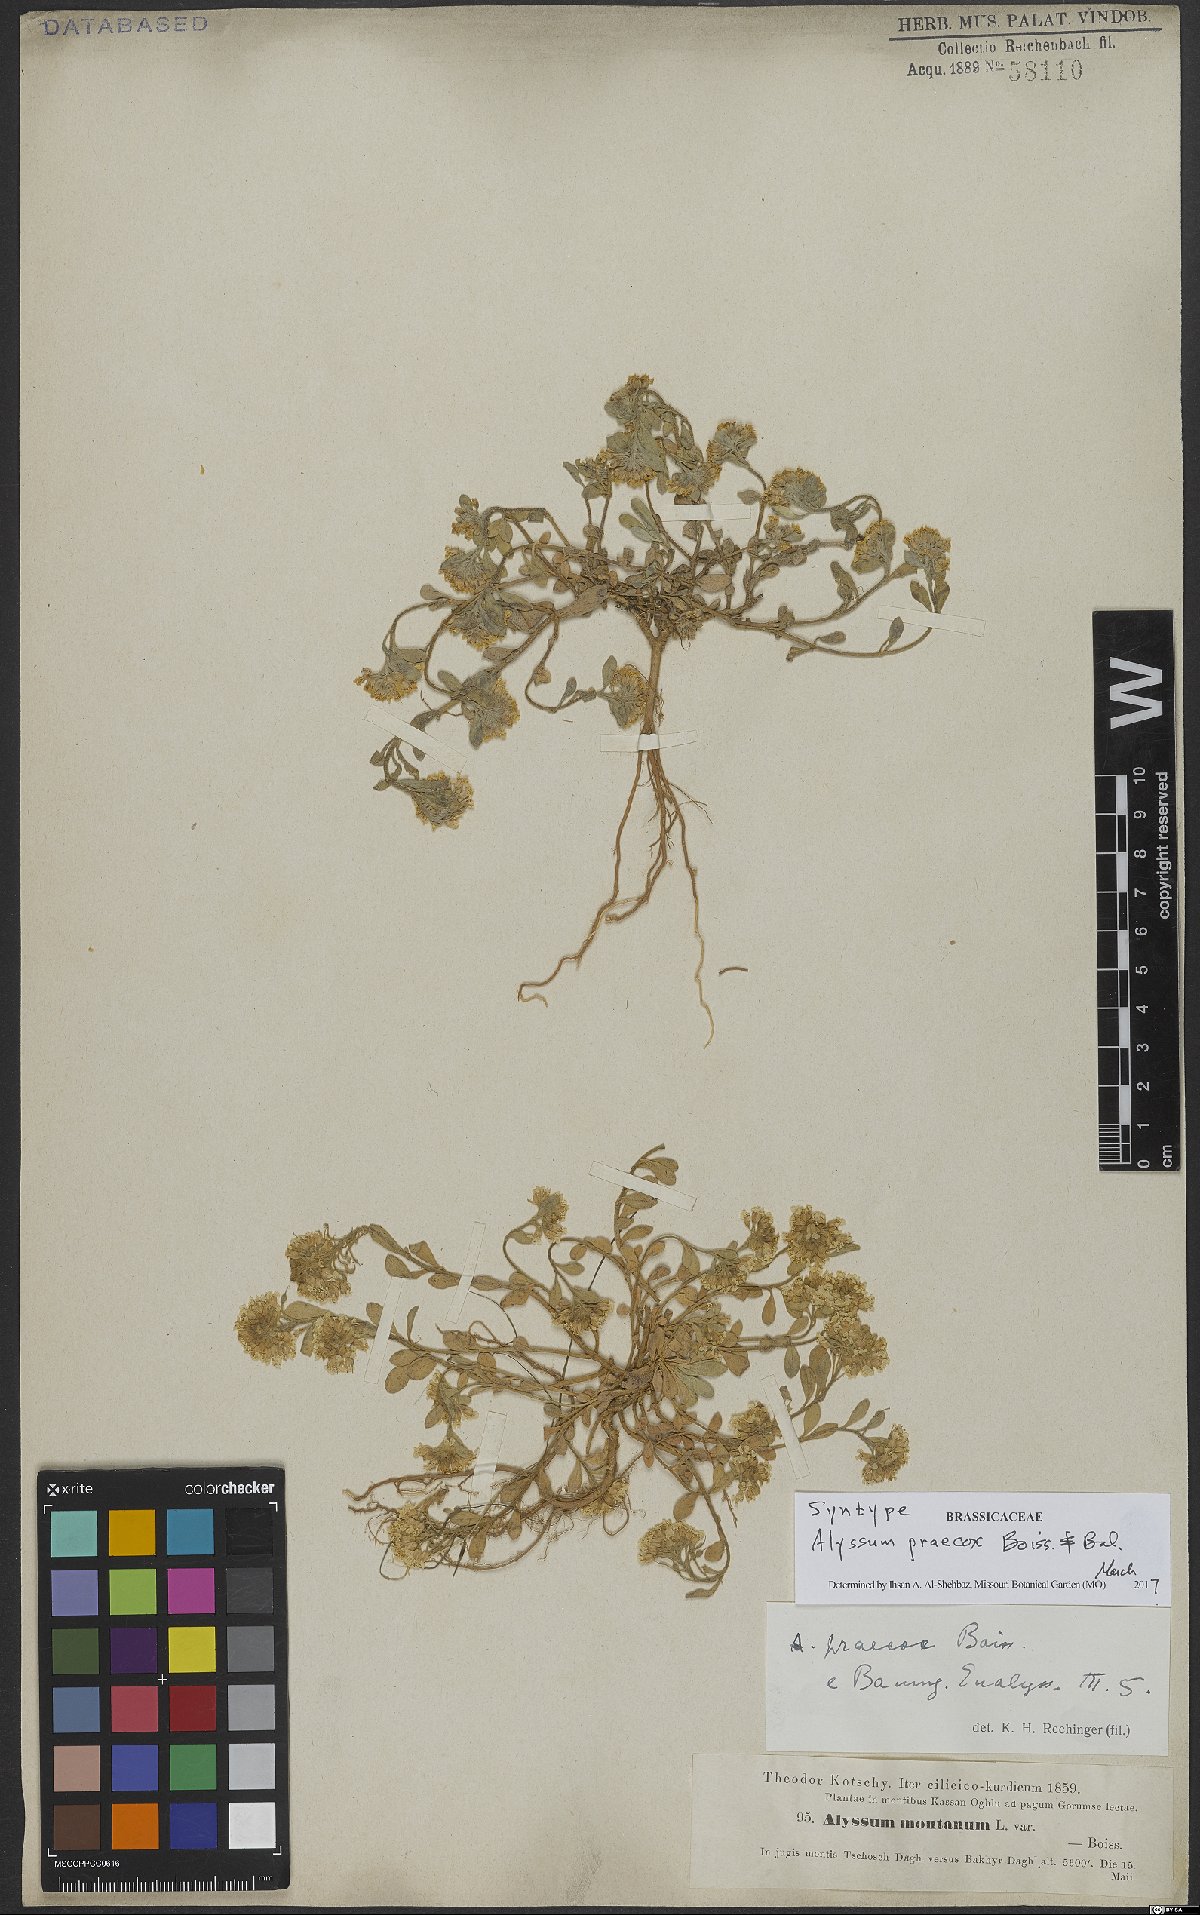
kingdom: Plantae
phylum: Tracheophyta
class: Magnoliopsida
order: Brassicales
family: Brassicaceae
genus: Alyssum
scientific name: Alyssum praecox
